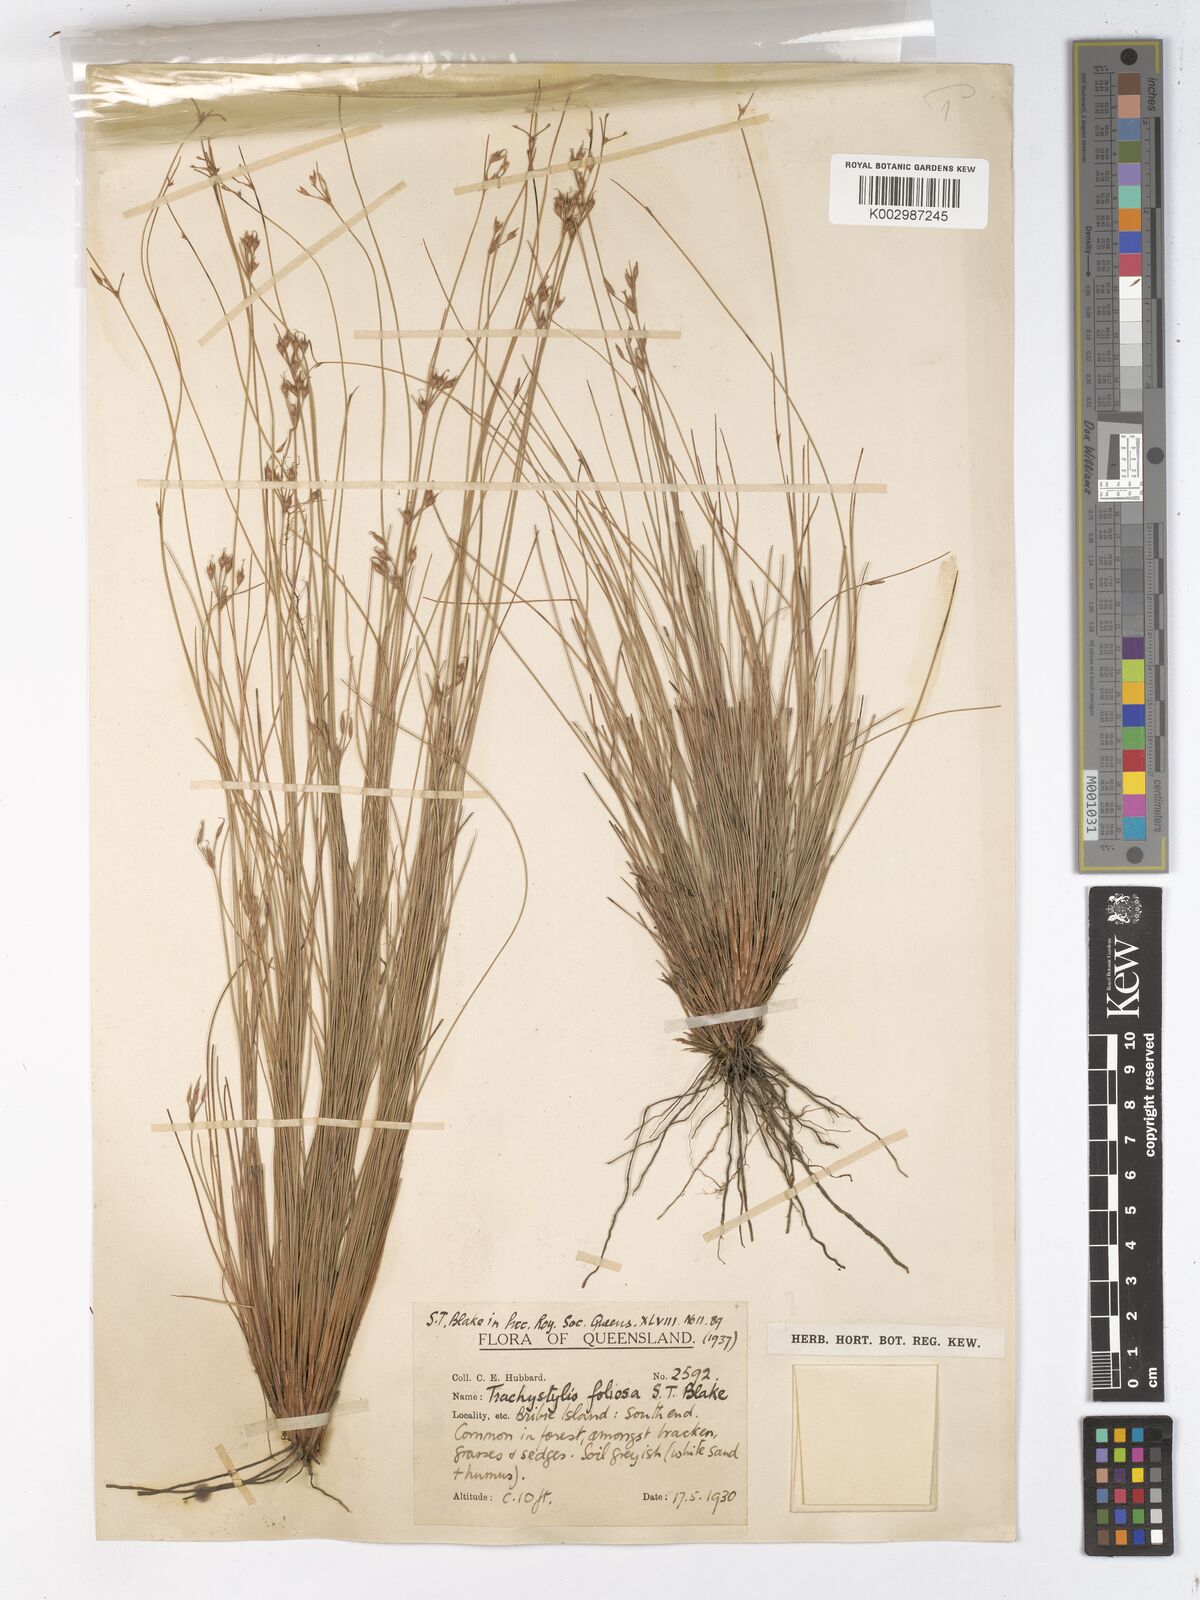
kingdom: Plantae
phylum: Tracheophyta
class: Liliopsida
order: Poales
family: Cyperaceae
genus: Trachystylis
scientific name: Trachystylis stradbrokensis
